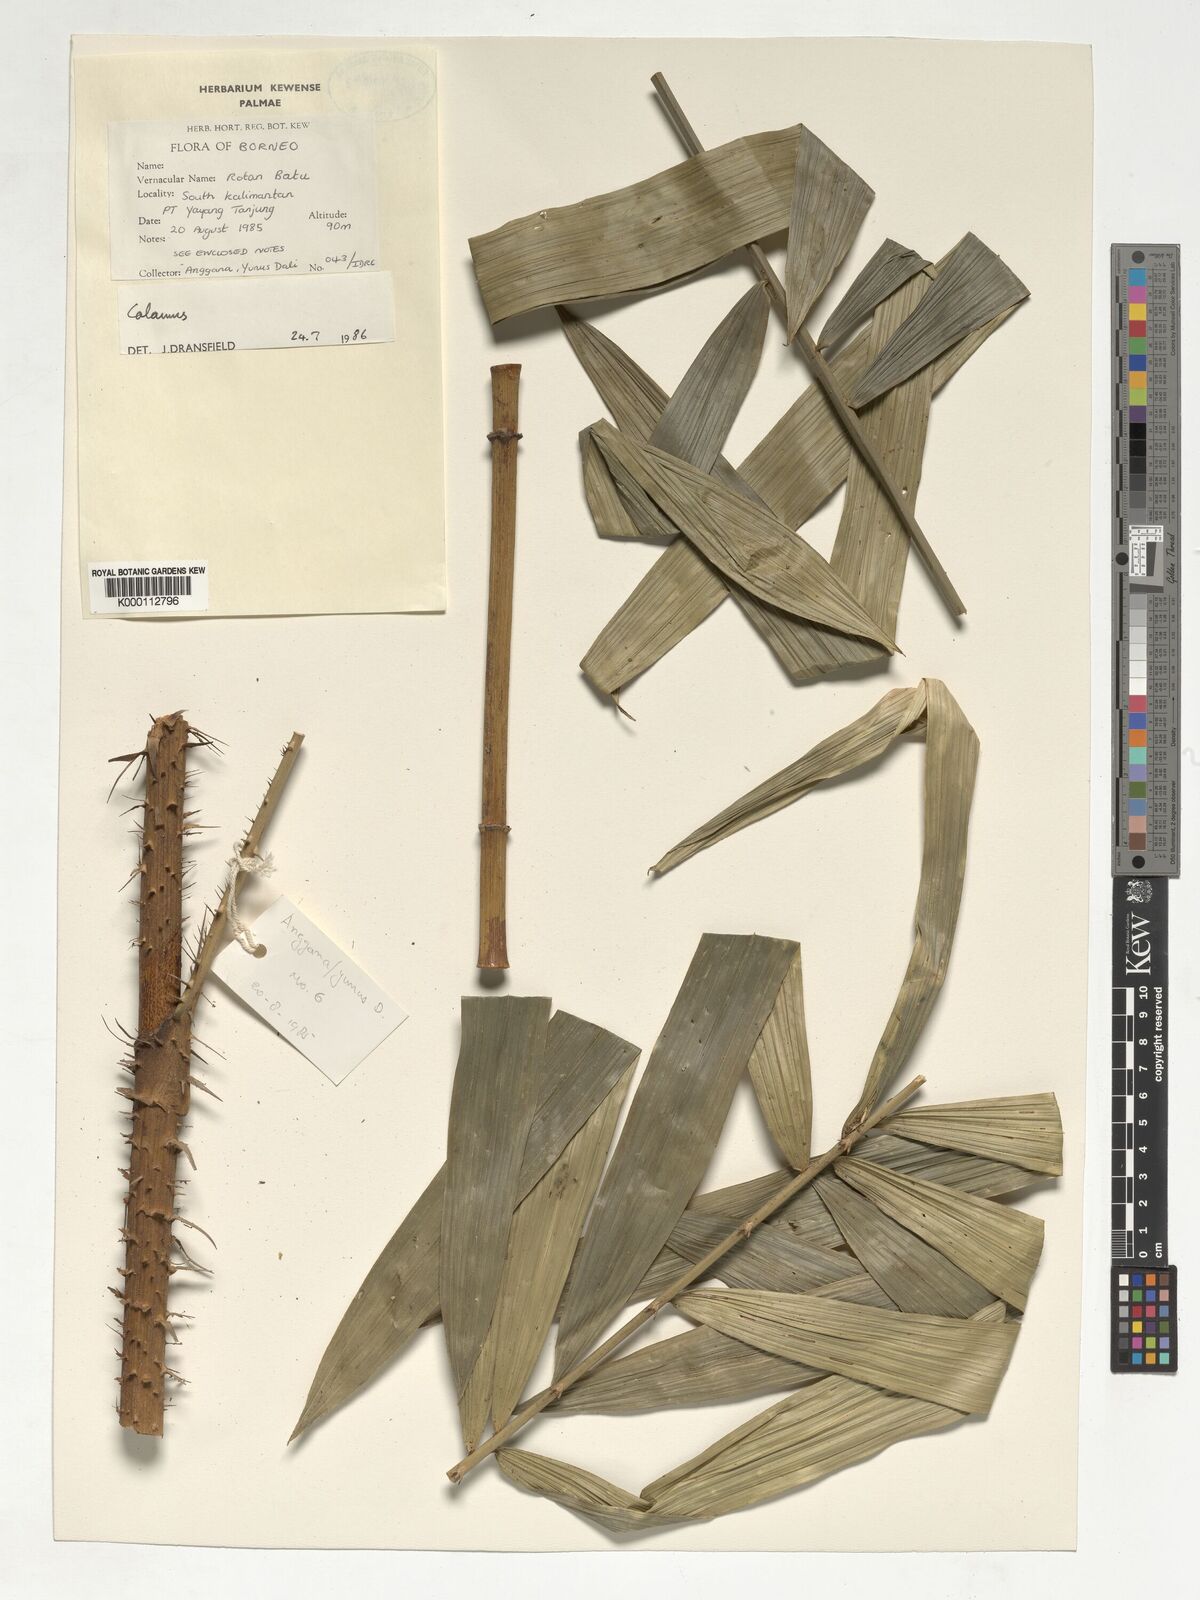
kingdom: Plantae
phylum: Tracheophyta
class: Liliopsida
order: Arecales
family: Arecaceae
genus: Calamus
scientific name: Calamus
